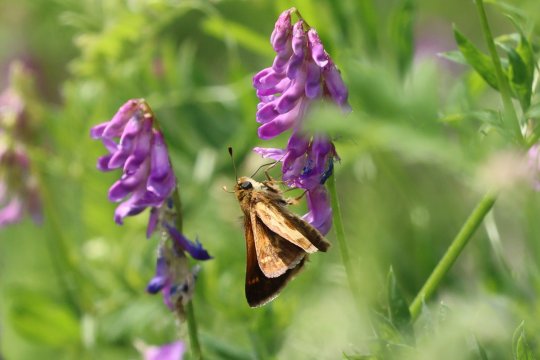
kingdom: Animalia
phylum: Arthropoda
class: Insecta
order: Lepidoptera
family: Hesperiidae
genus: Polites
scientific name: Polites coras
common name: Peck's Skipper
